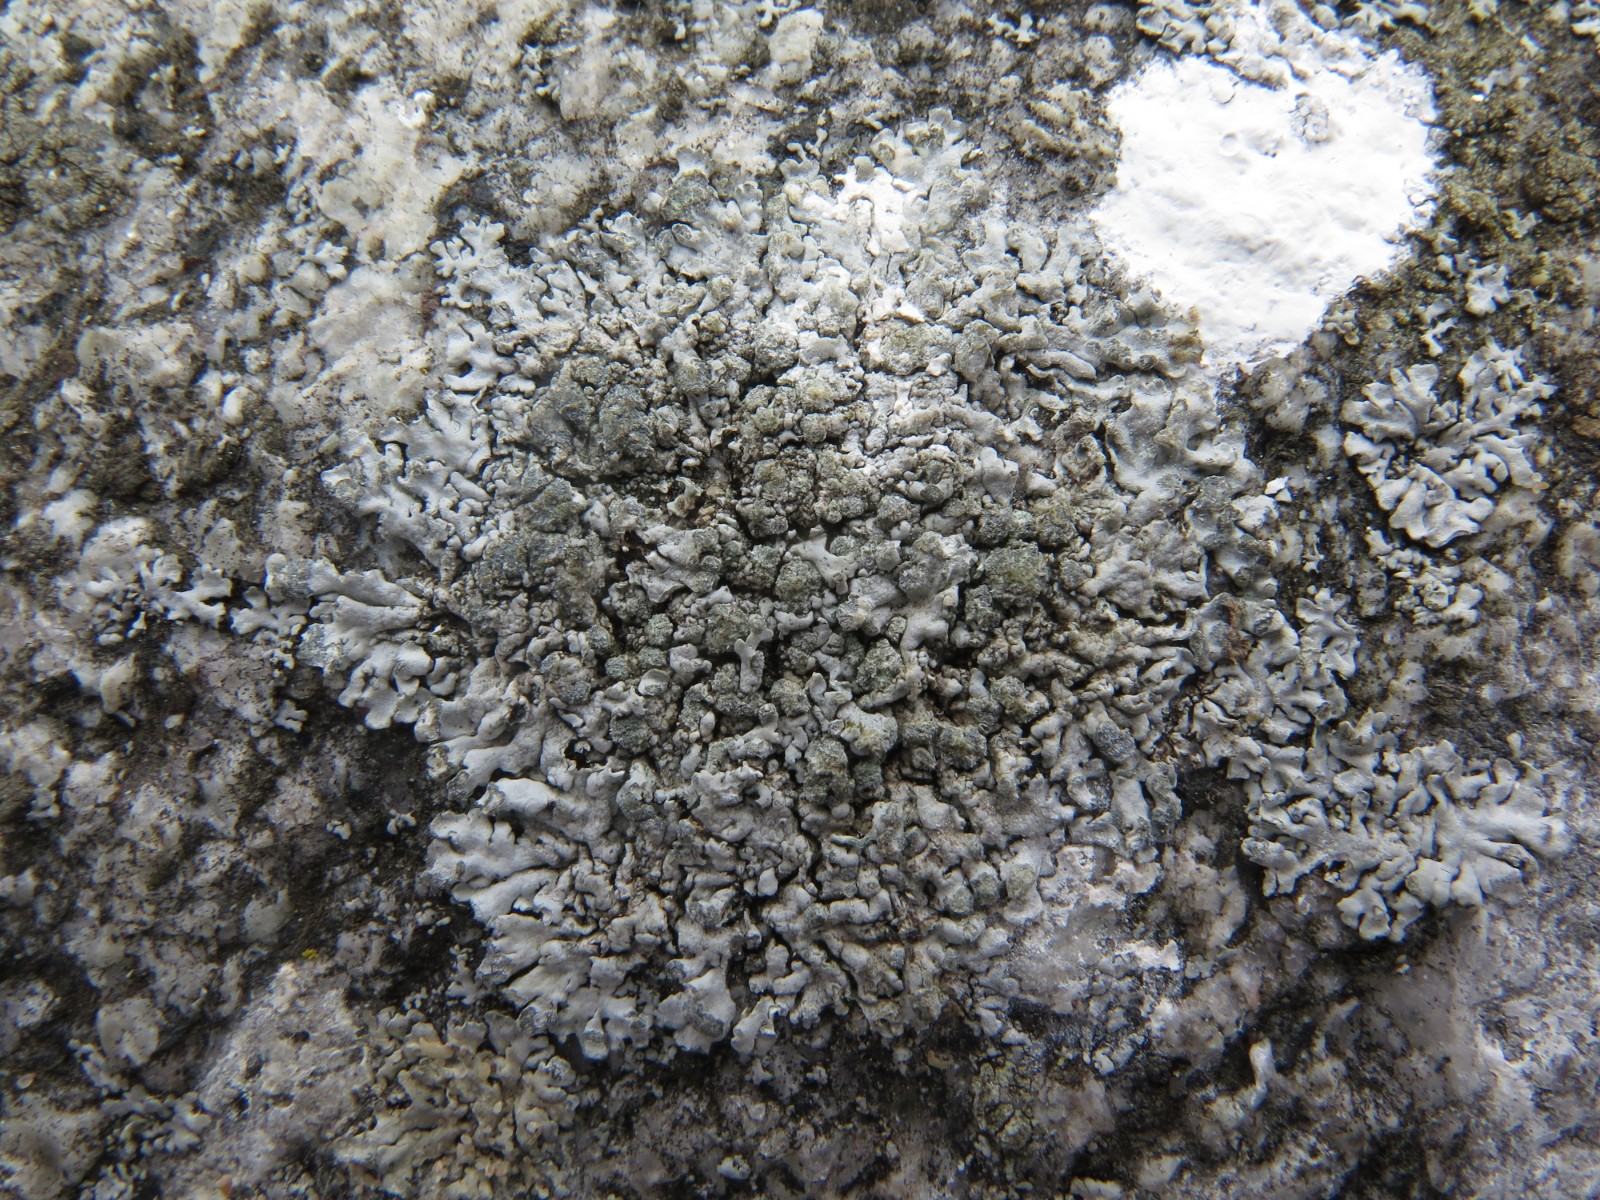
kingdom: Fungi
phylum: Ascomycota
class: Lecanoromycetes
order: Caliciales
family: Physciaceae
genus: Phaeophyscia
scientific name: Phaeophyscia orbicularis
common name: grågrøn rosetlav
